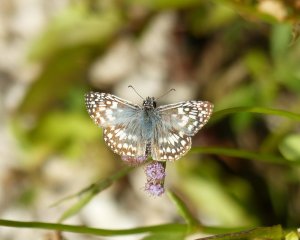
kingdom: Animalia
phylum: Arthropoda
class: Insecta
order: Lepidoptera
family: Hesperiidae
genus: Pyrgus
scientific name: Pyrgus oileus
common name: Tropical Checkered-Skipper
